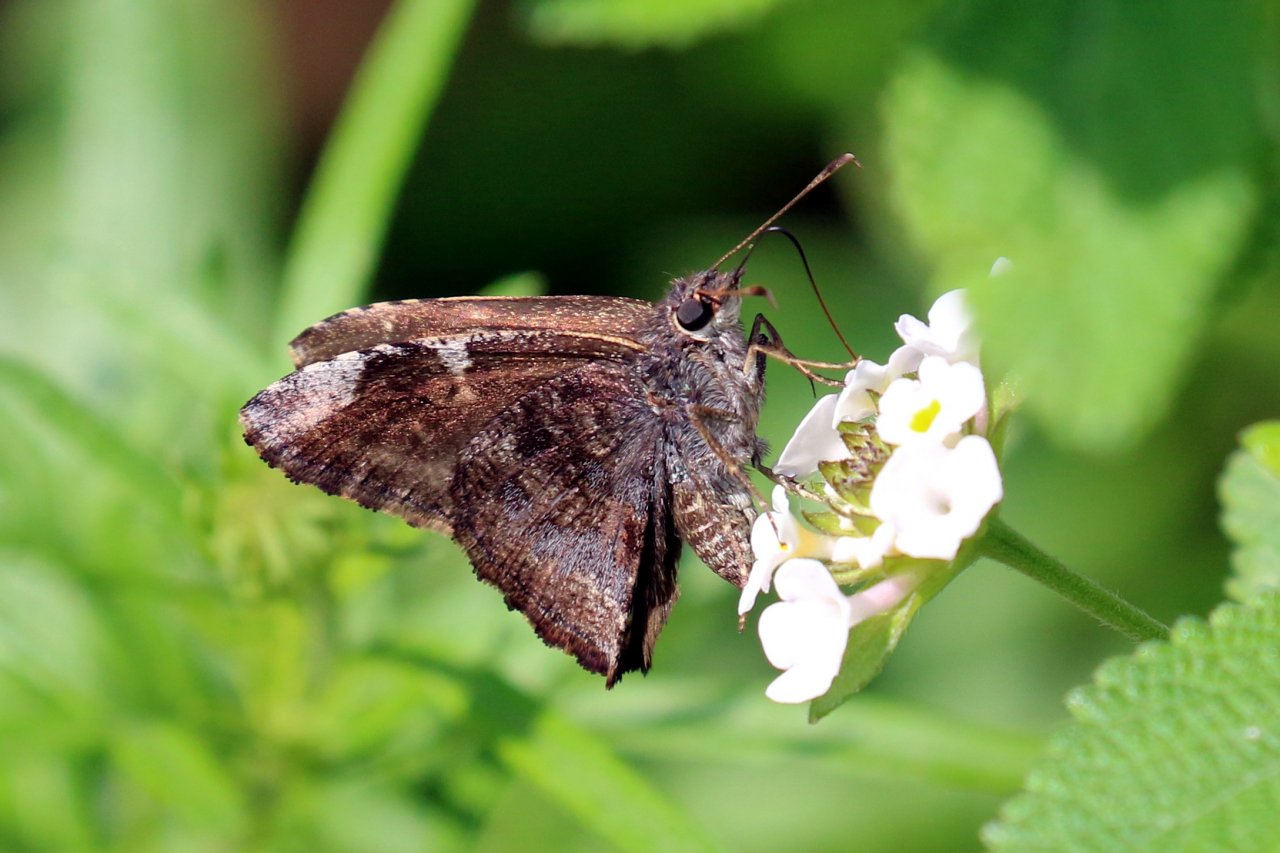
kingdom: Animalia
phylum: Arthropoda
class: Insecta
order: Lepidoptera
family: Hesperiidae
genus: Caicella
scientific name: Caicella calchas
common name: Mimosa Skipper
